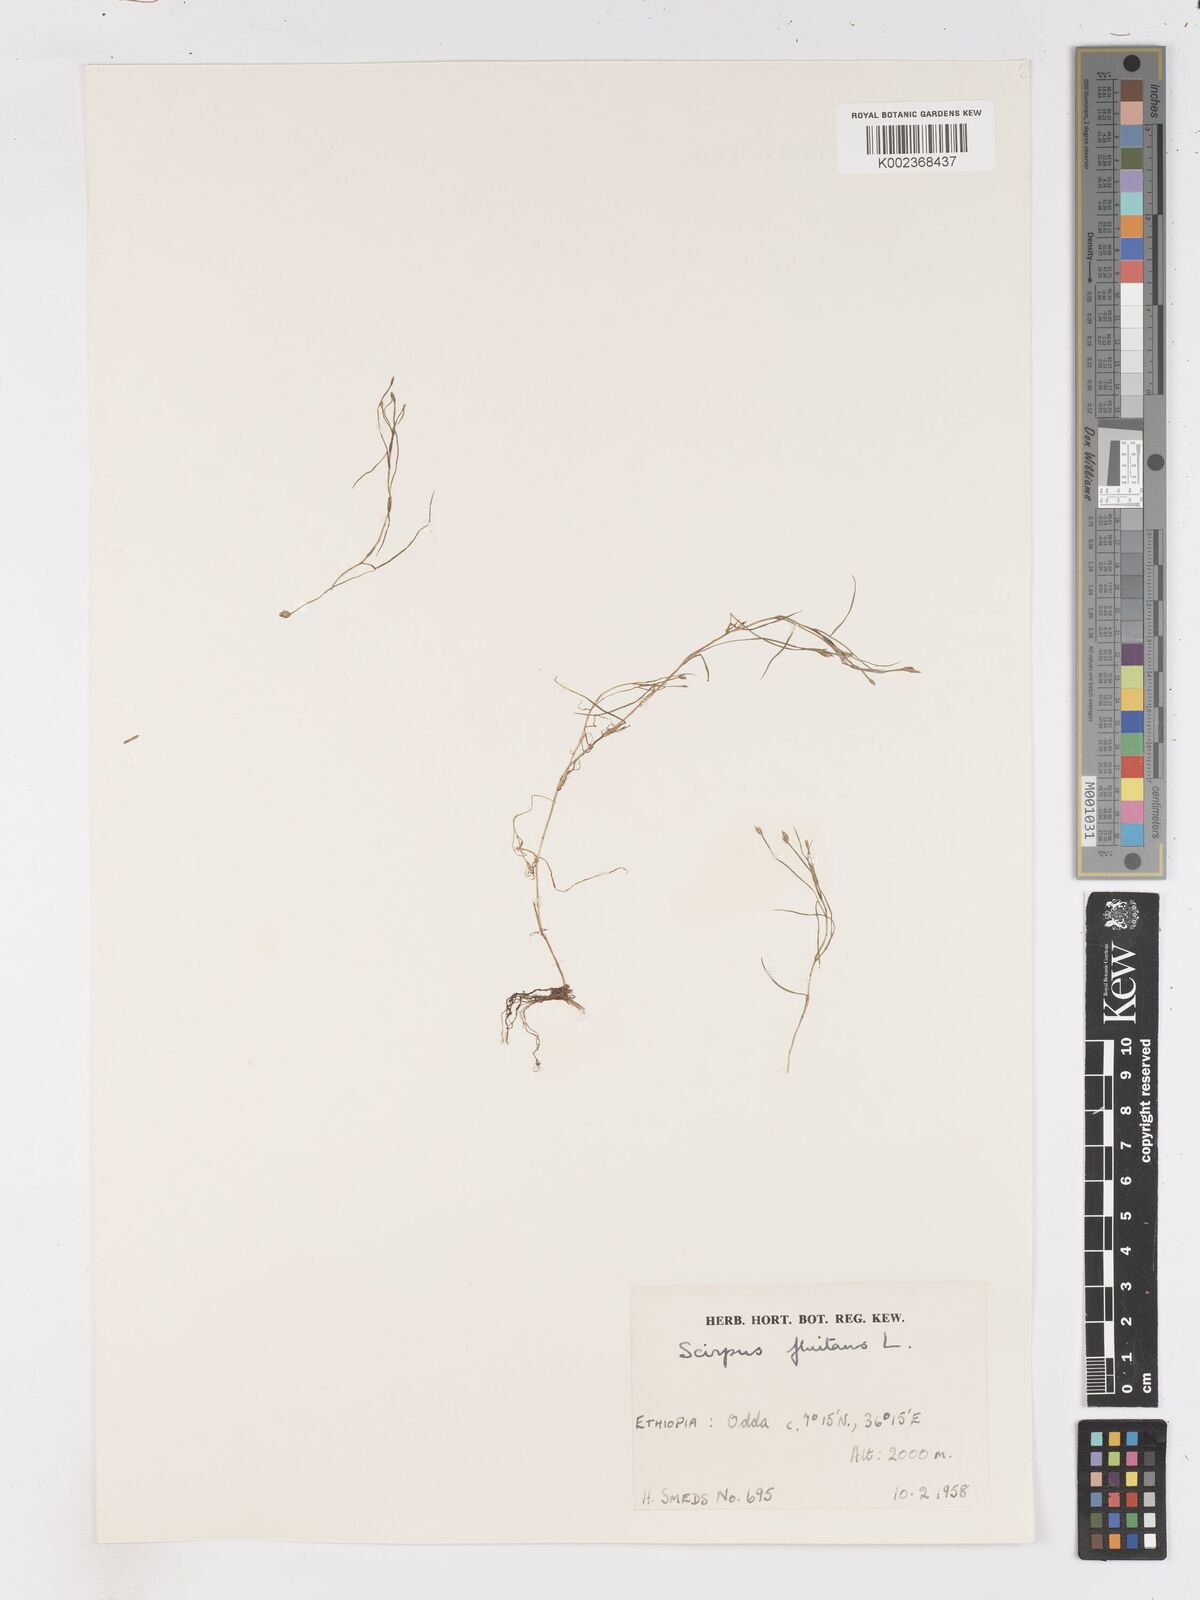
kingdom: Plantae
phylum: Tracheophyta
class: Liliopsida
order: Poales
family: Cyperaceae
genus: Isolepis
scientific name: Isolepis fluitans
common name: Floating club-rush
